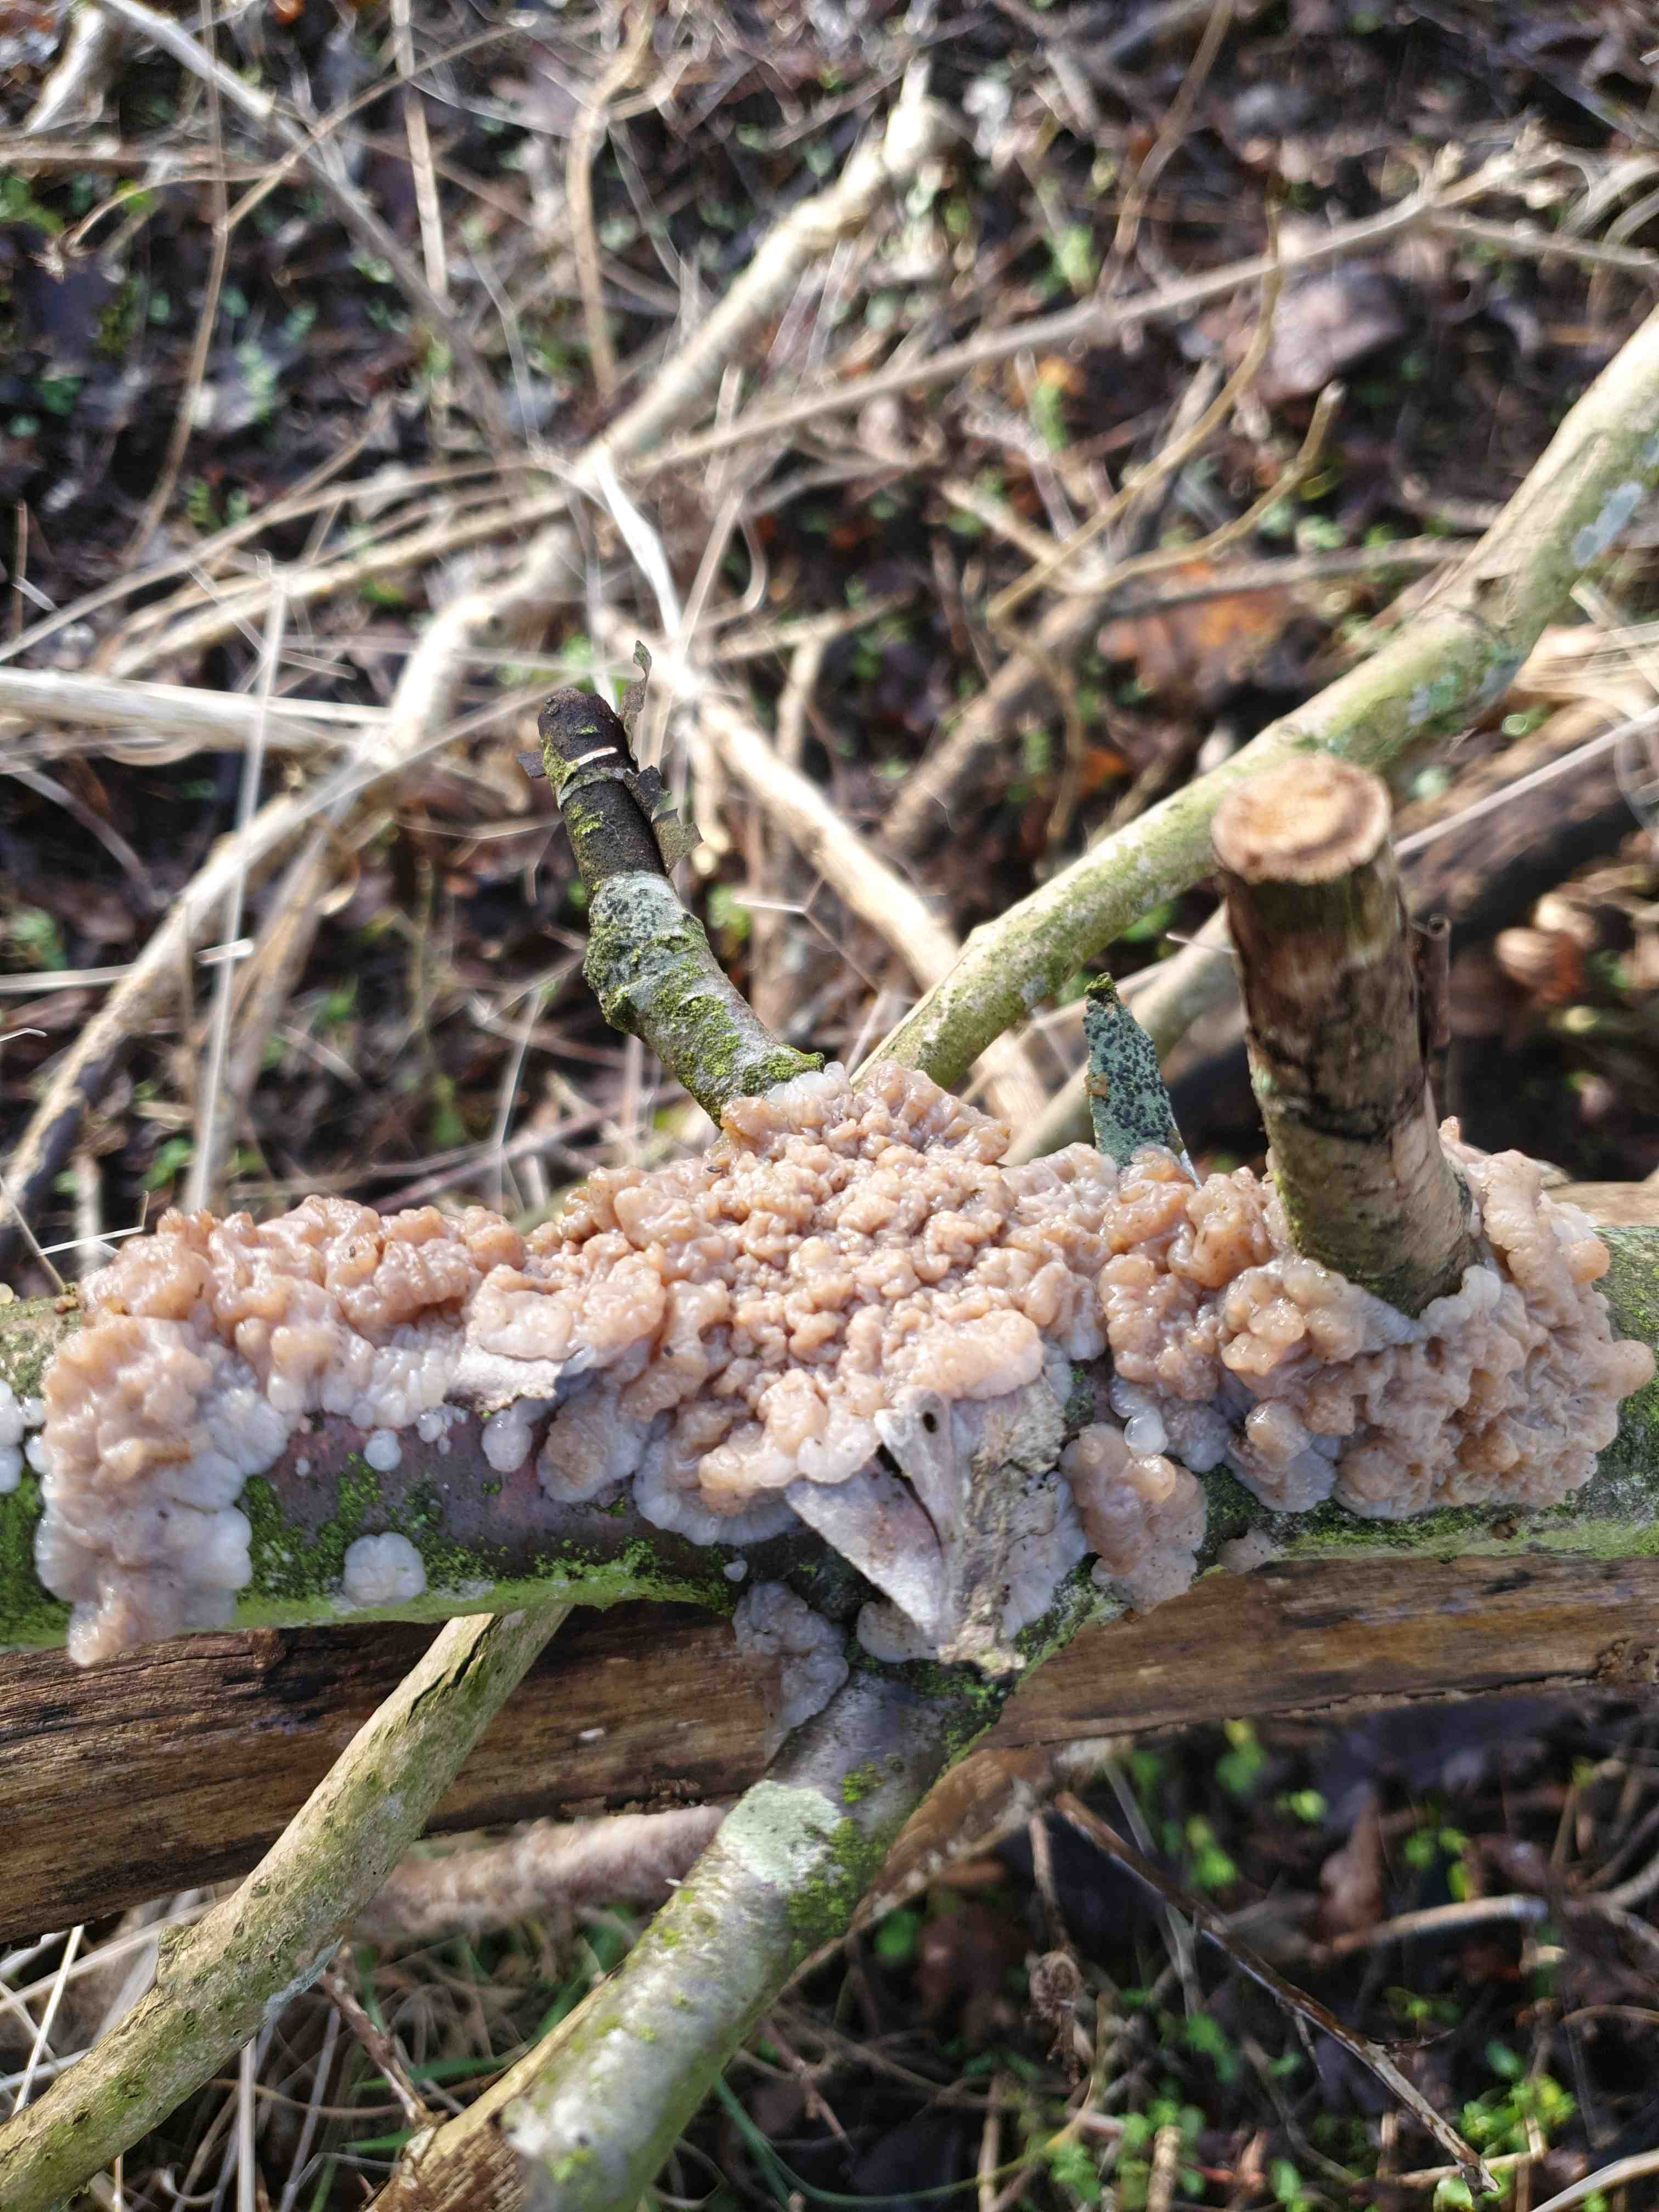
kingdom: Fungi
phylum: Basidiomycota
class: Agaricomycetes
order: Auriculariales
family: Auriculariaceae
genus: Exidia
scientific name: Exidia thuretiana
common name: hvidlig bævretop
